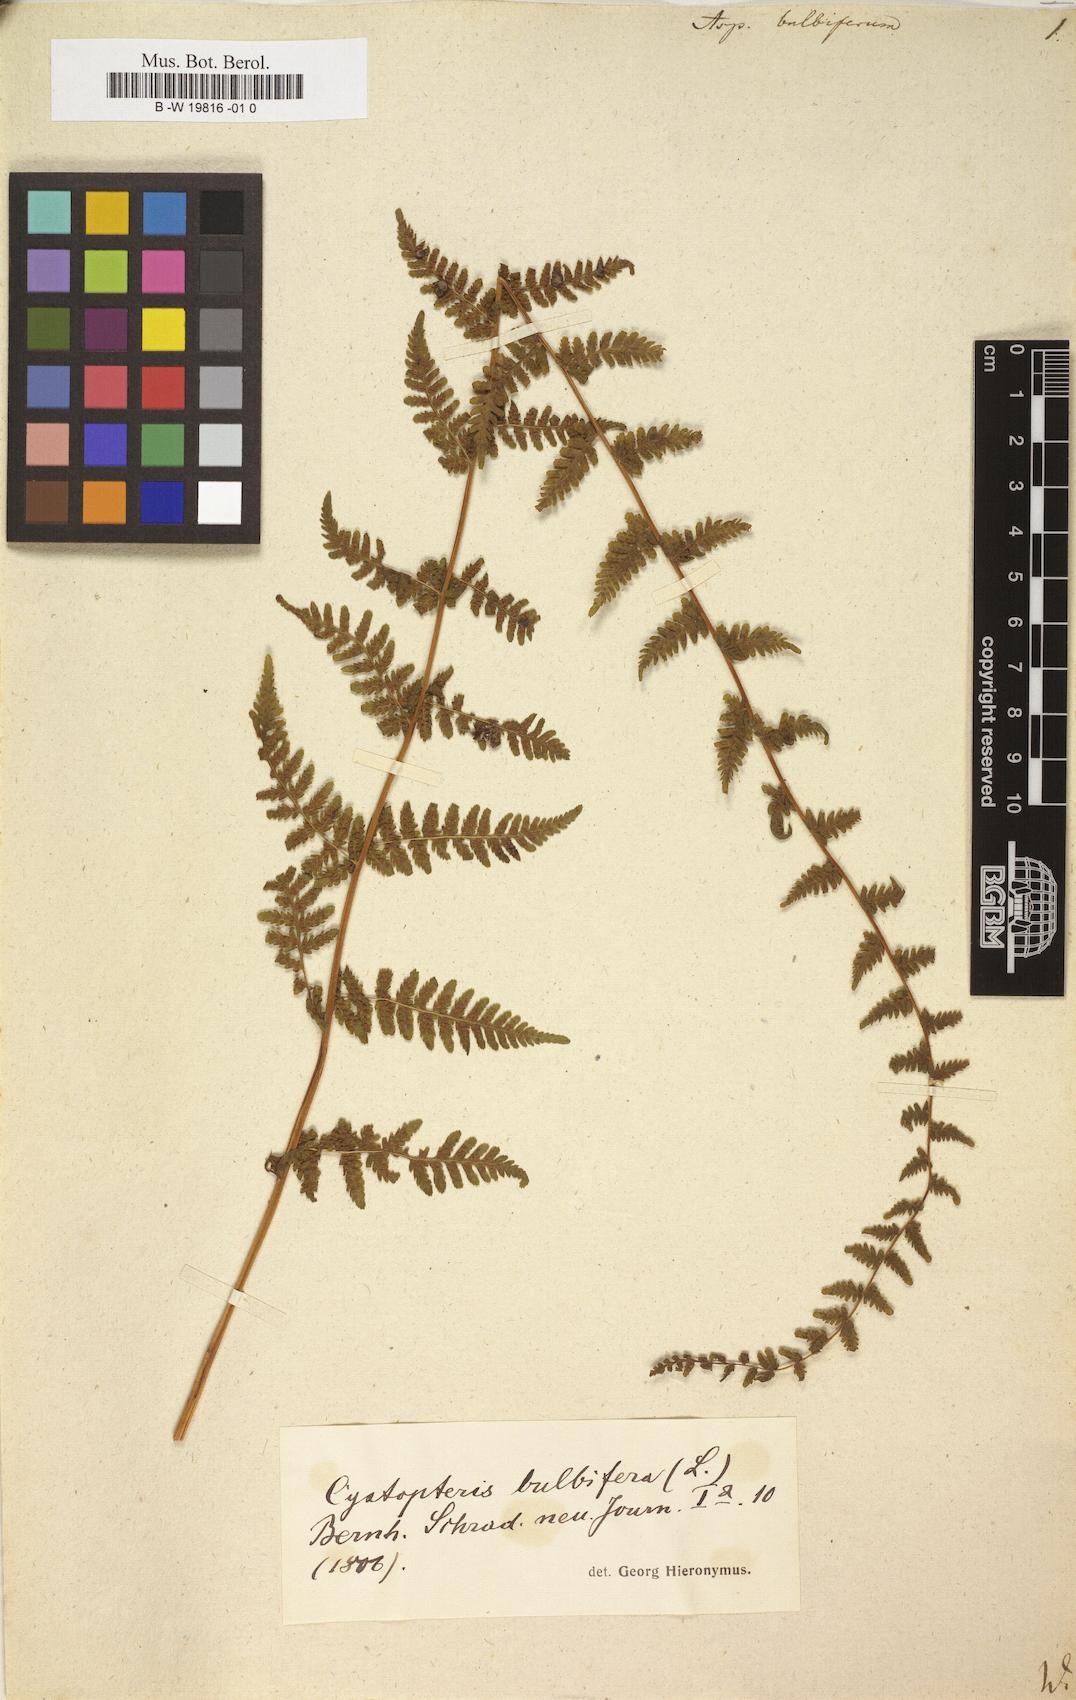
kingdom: Plantae
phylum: Tracheophyta
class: Polypodiopsida
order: Polypodiales
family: Cystopteridaceae
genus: Cystopteris
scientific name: Cystopteris bulbifera
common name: Bulblet bladder fern
